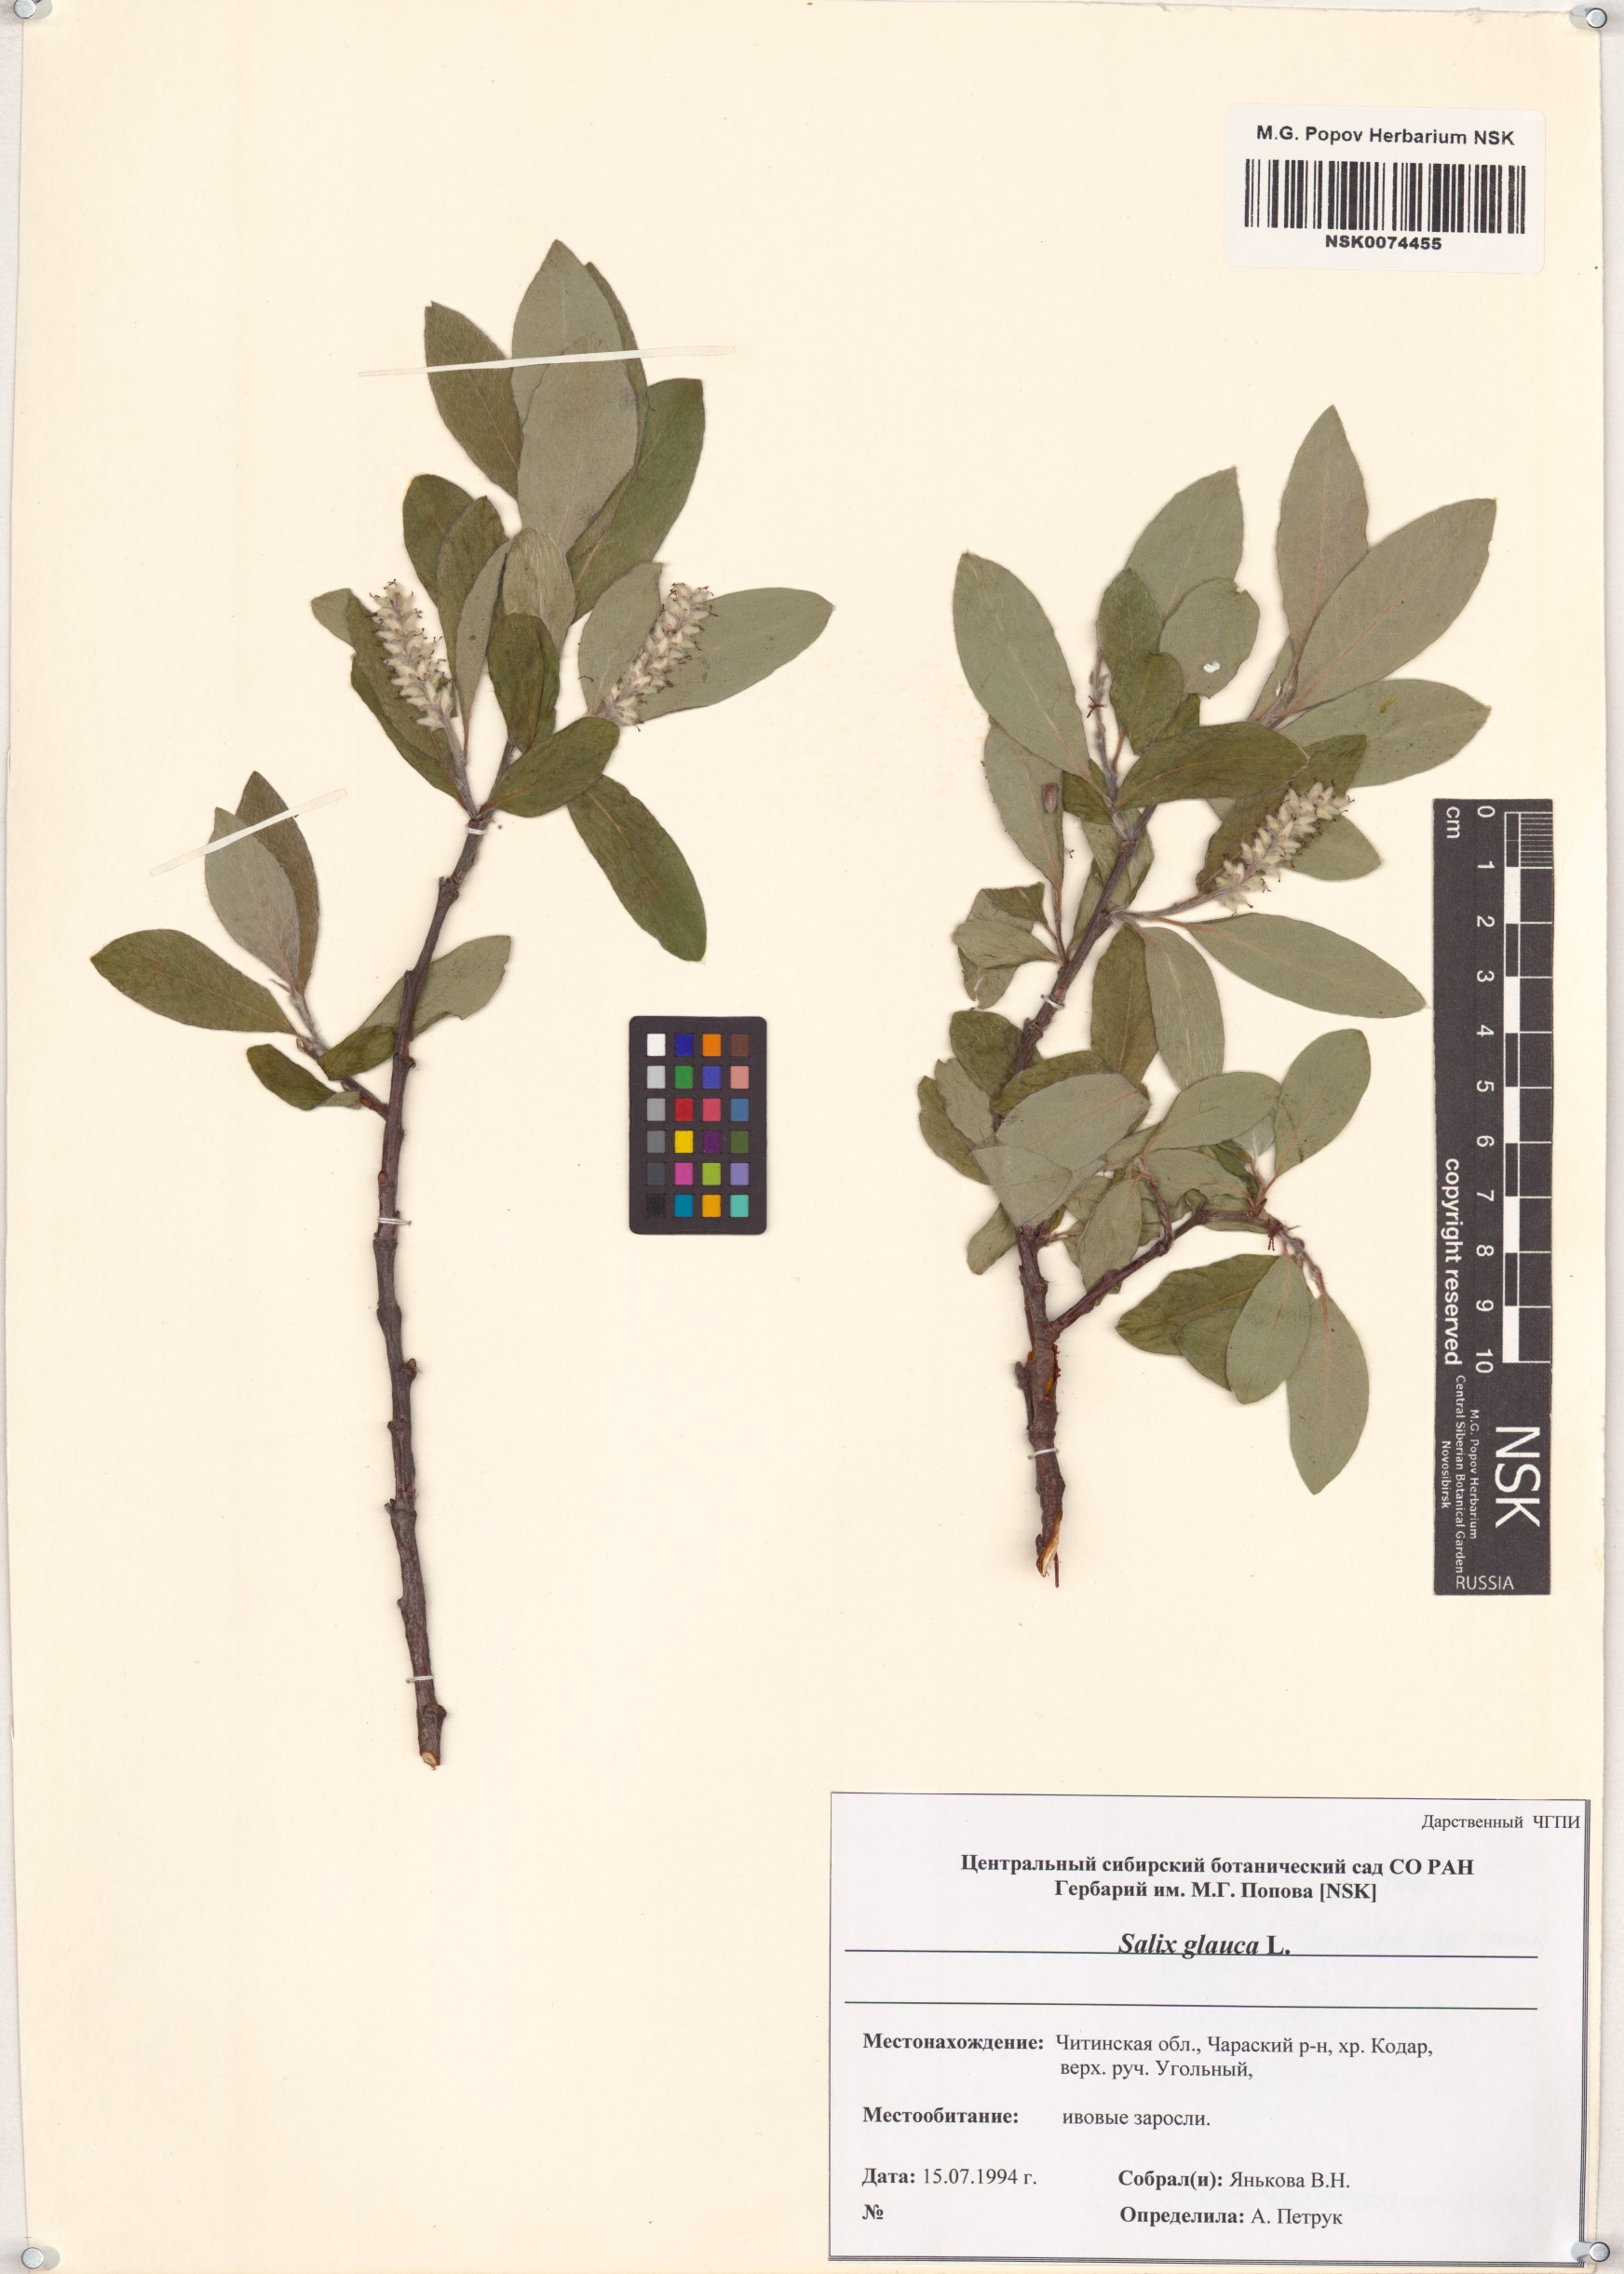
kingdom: Plantae
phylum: Tracheophyta
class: Magnoliopsida
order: Malpighiales
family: Salicaceae
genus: Salix
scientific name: Salix glauca
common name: Glaucous willow
